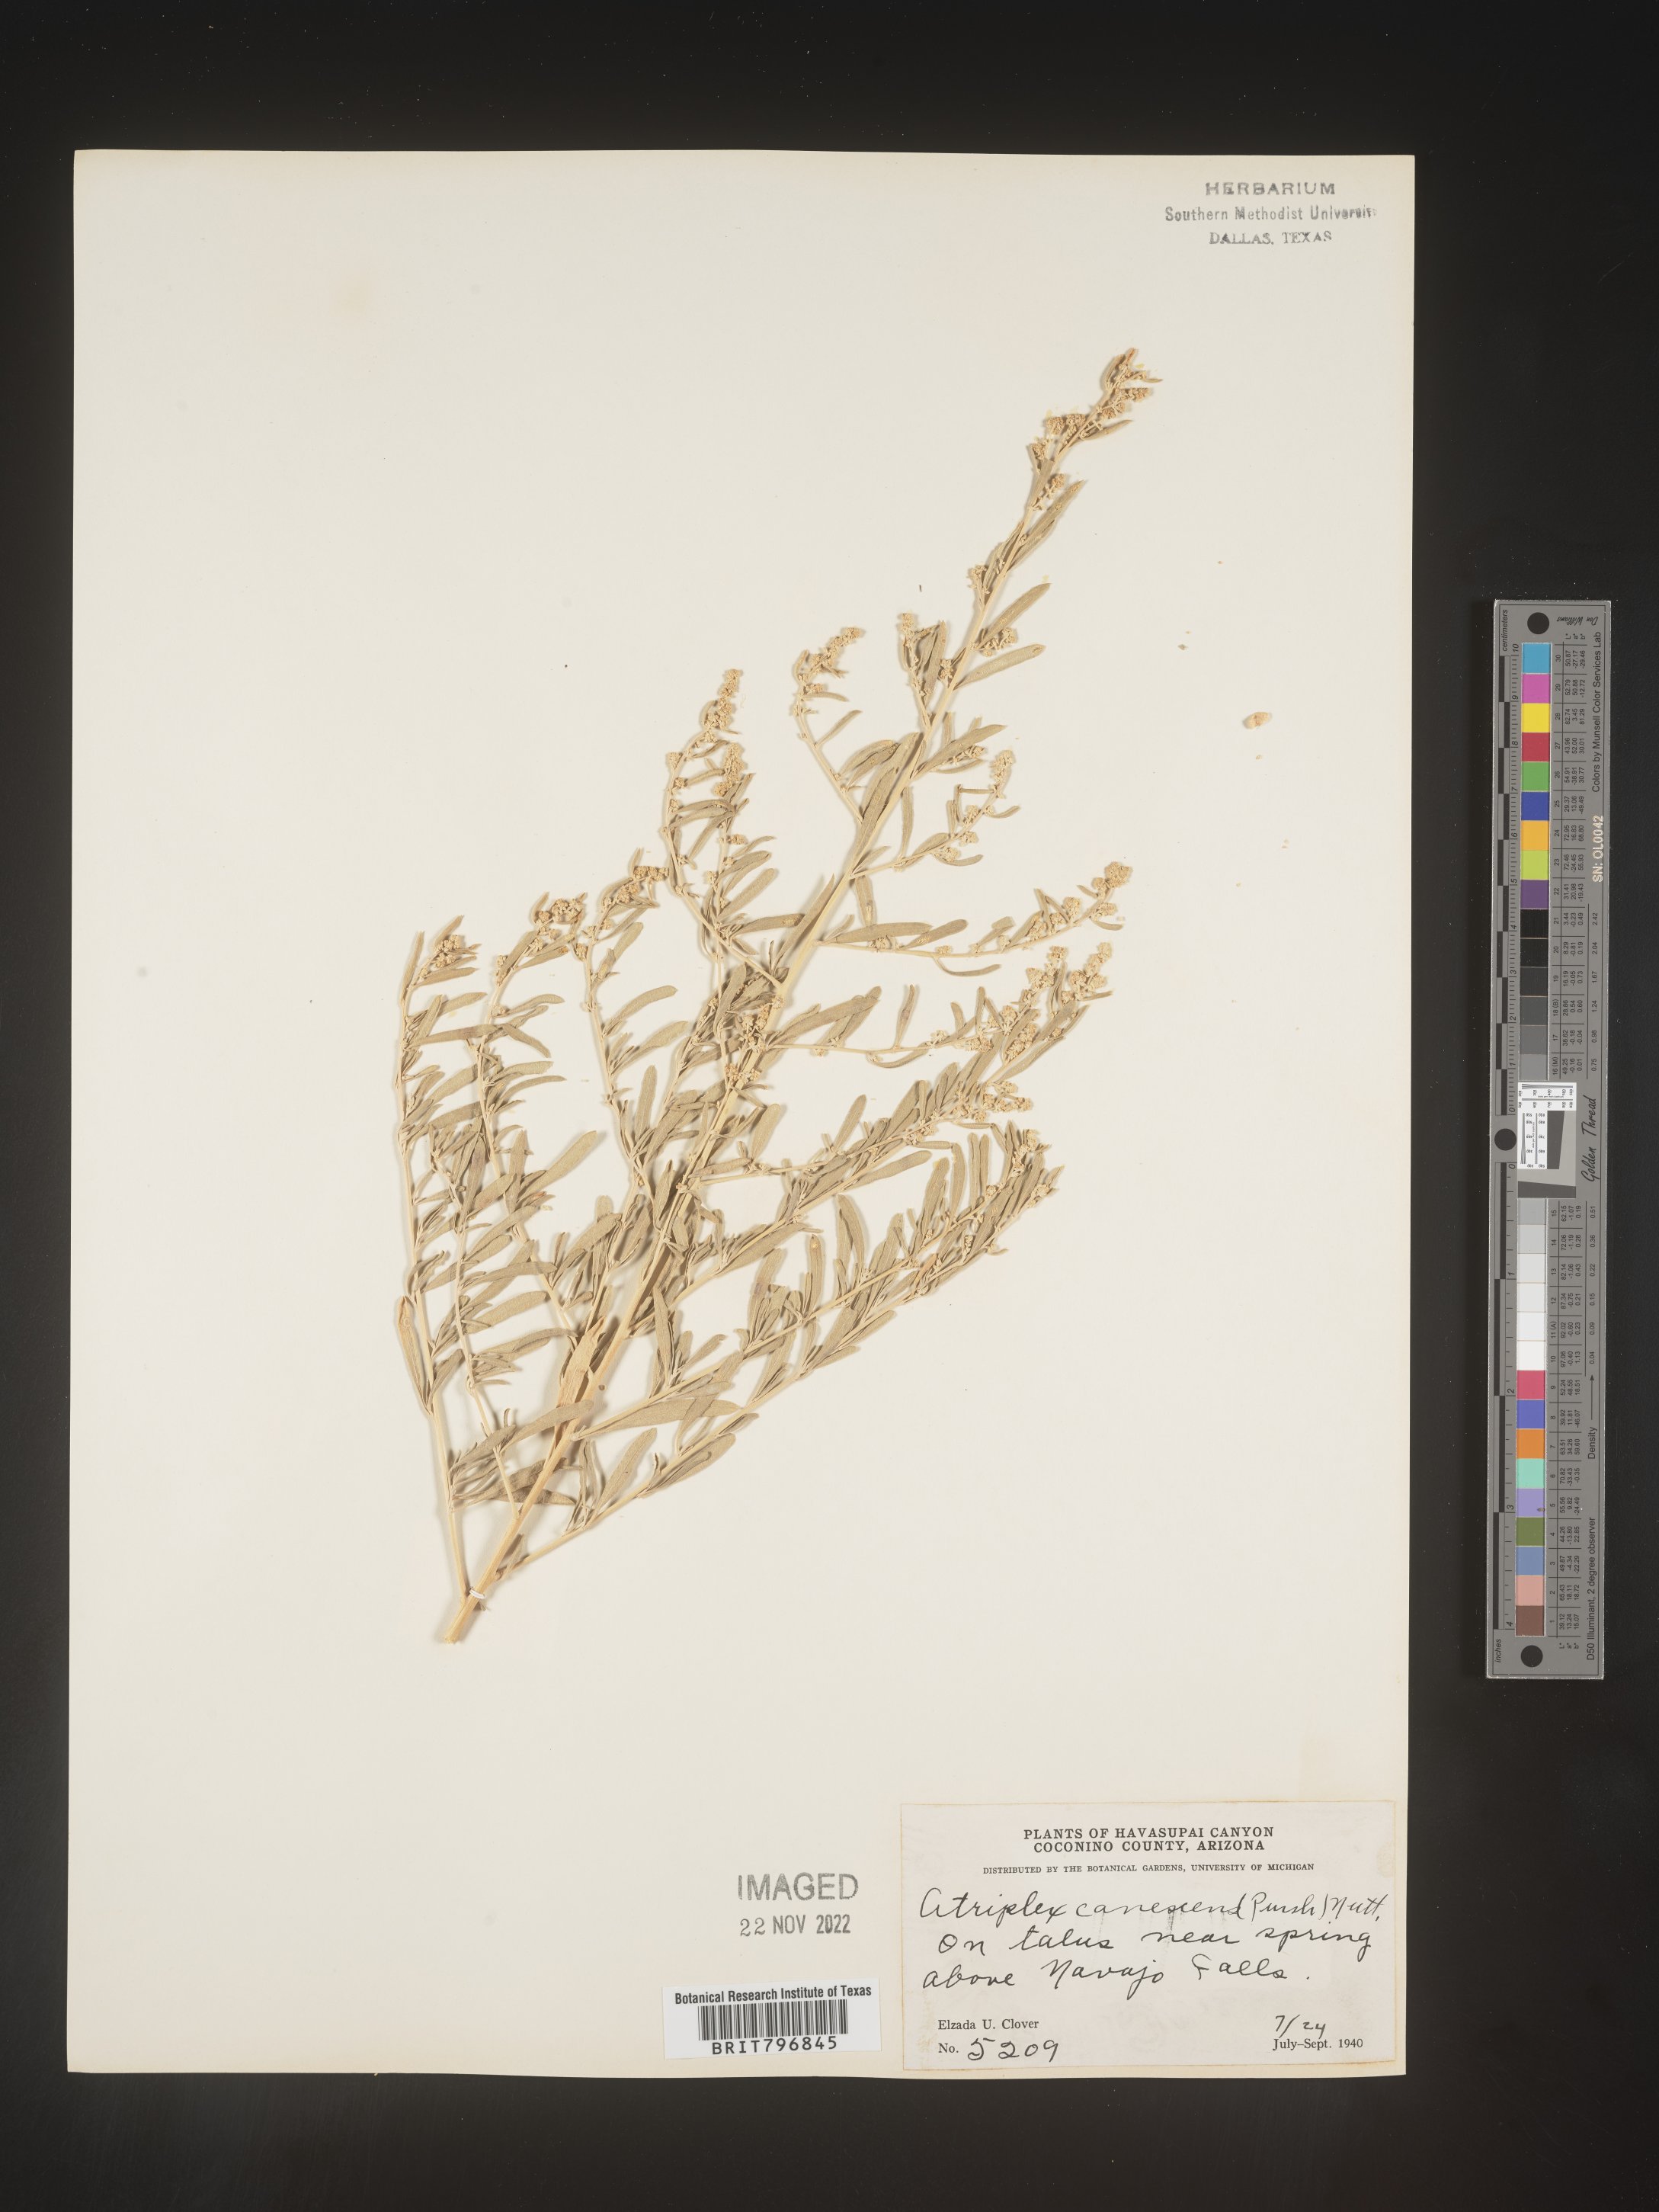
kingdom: Plantae
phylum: Tracheophyta
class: Magnoliopsida
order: Caryophyllales
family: Amaranthaceae
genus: Atriplex
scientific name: Atriplex canescens
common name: Four-wing saltbush
